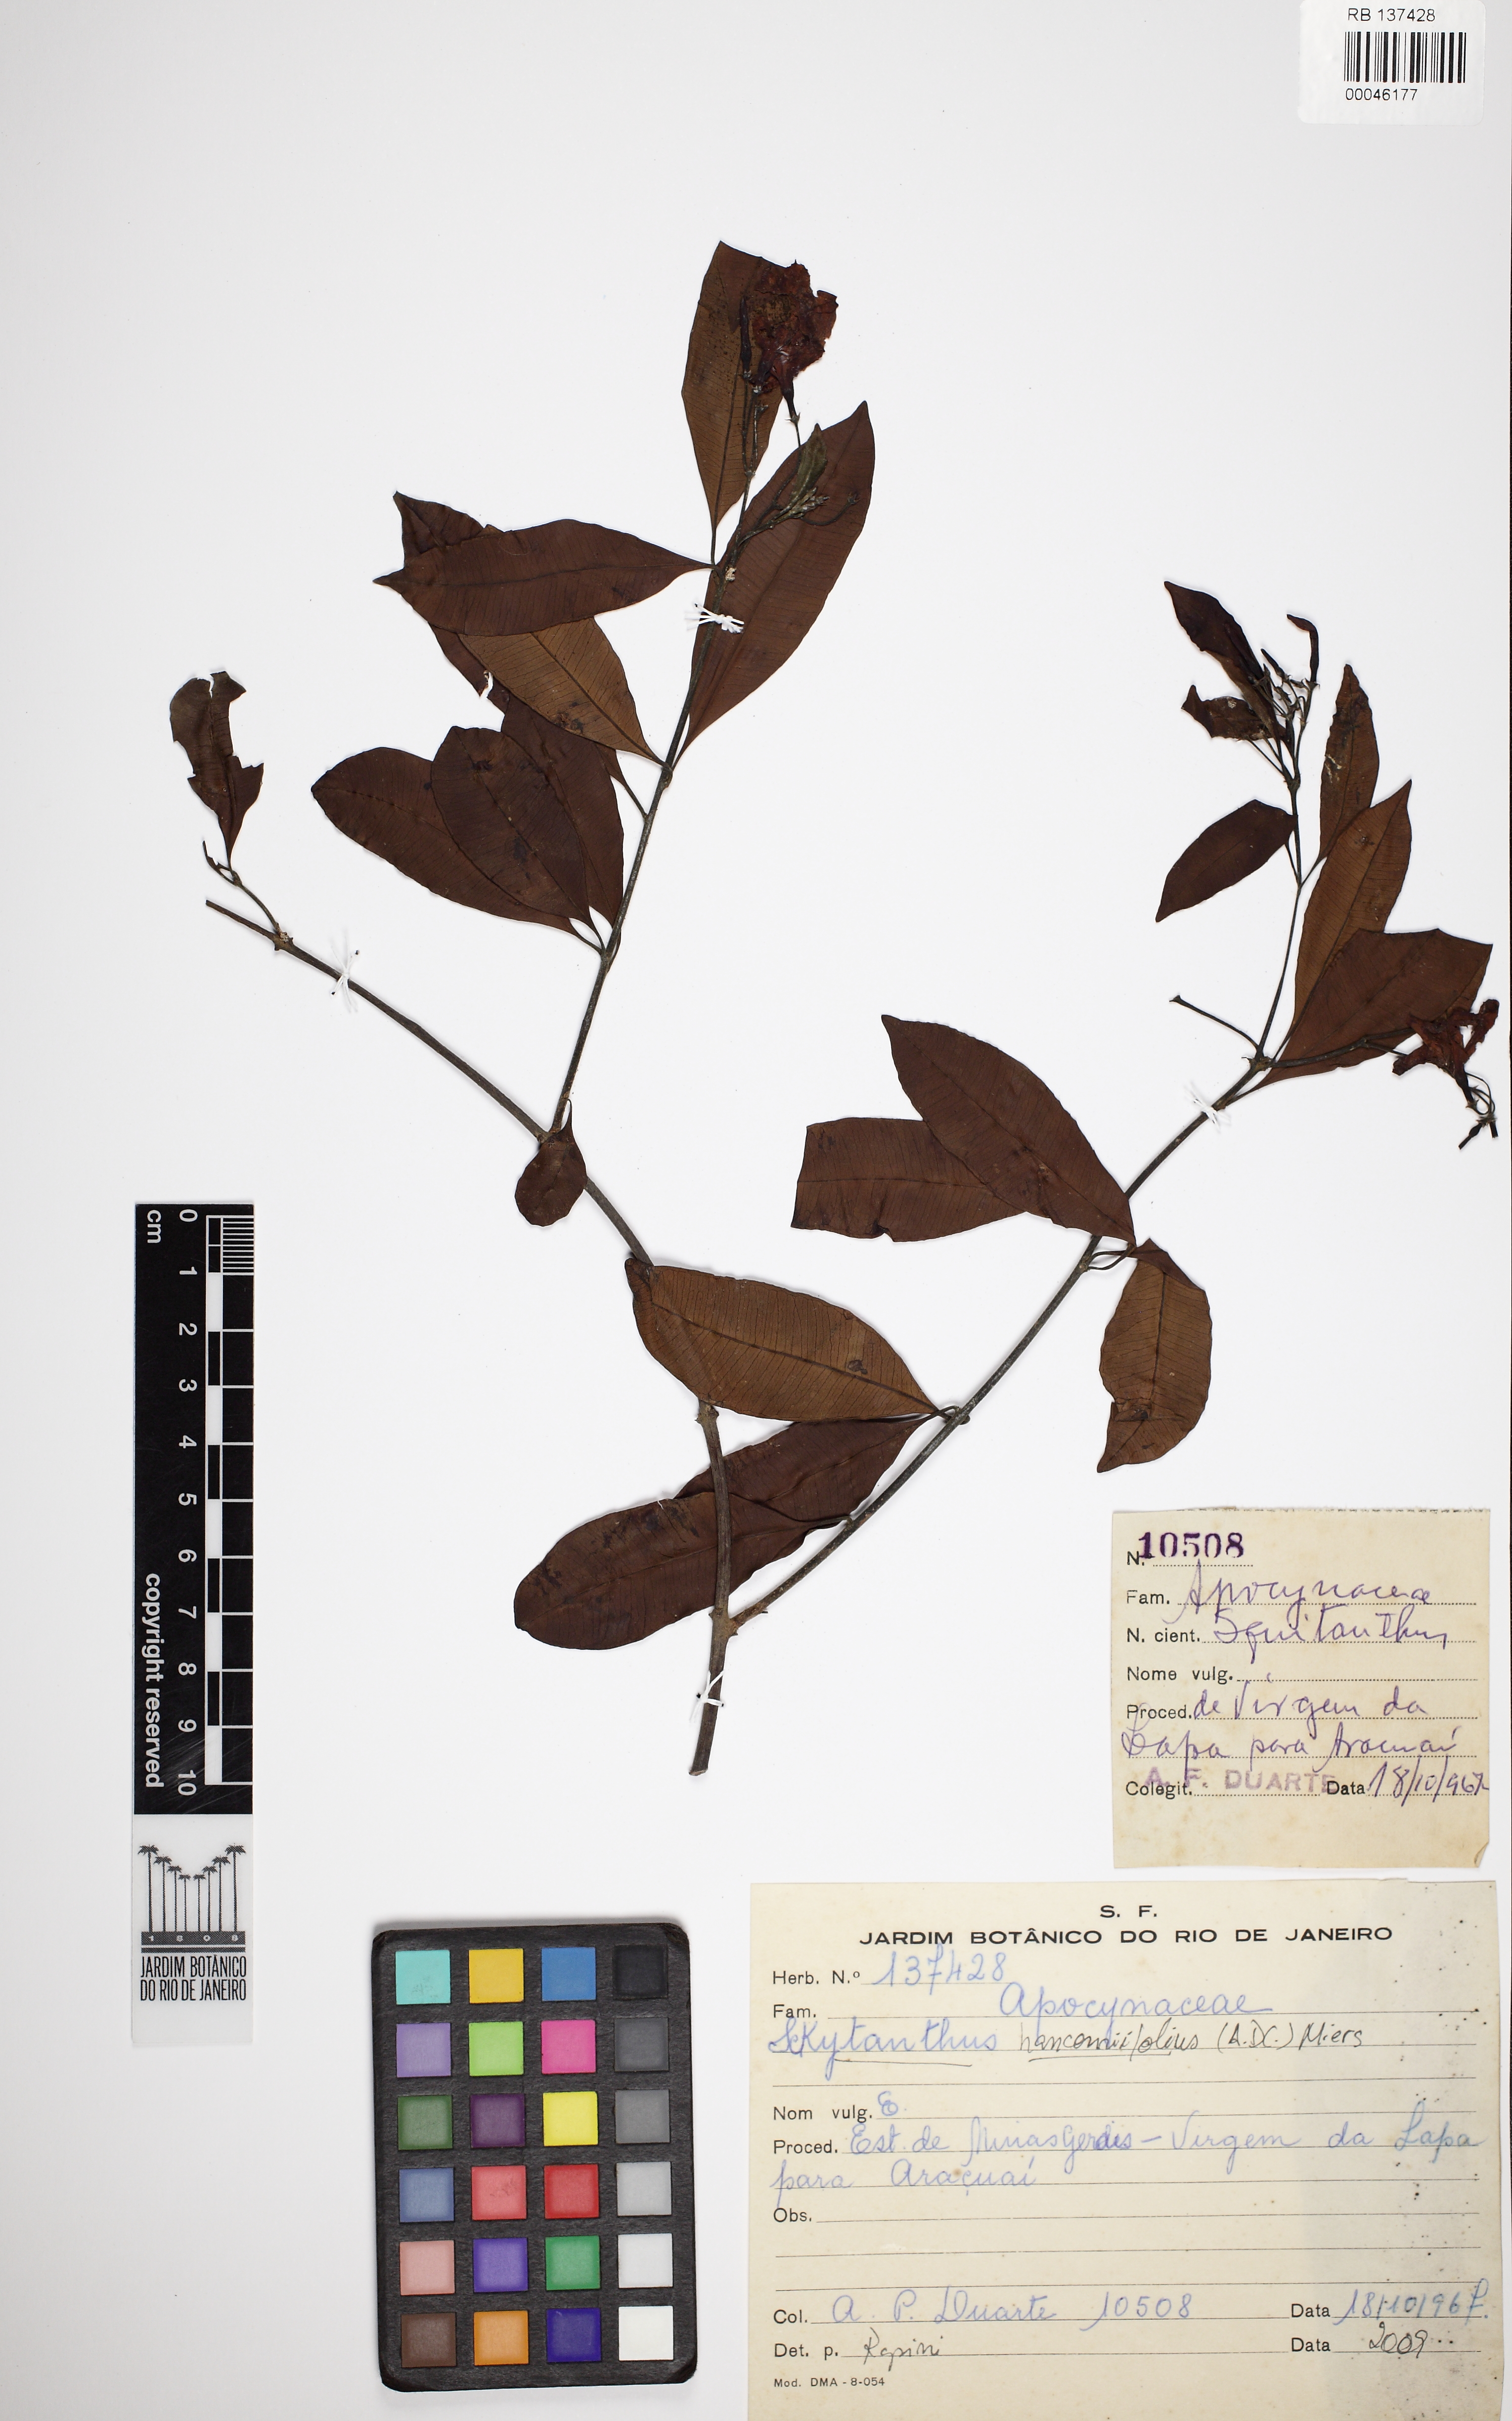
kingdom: Plantae
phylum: Tracheophyta
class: Magnoliopsida
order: Gentianales
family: Apocynaceae
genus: Skytanthus
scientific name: Skytanthus hancorniifolius
